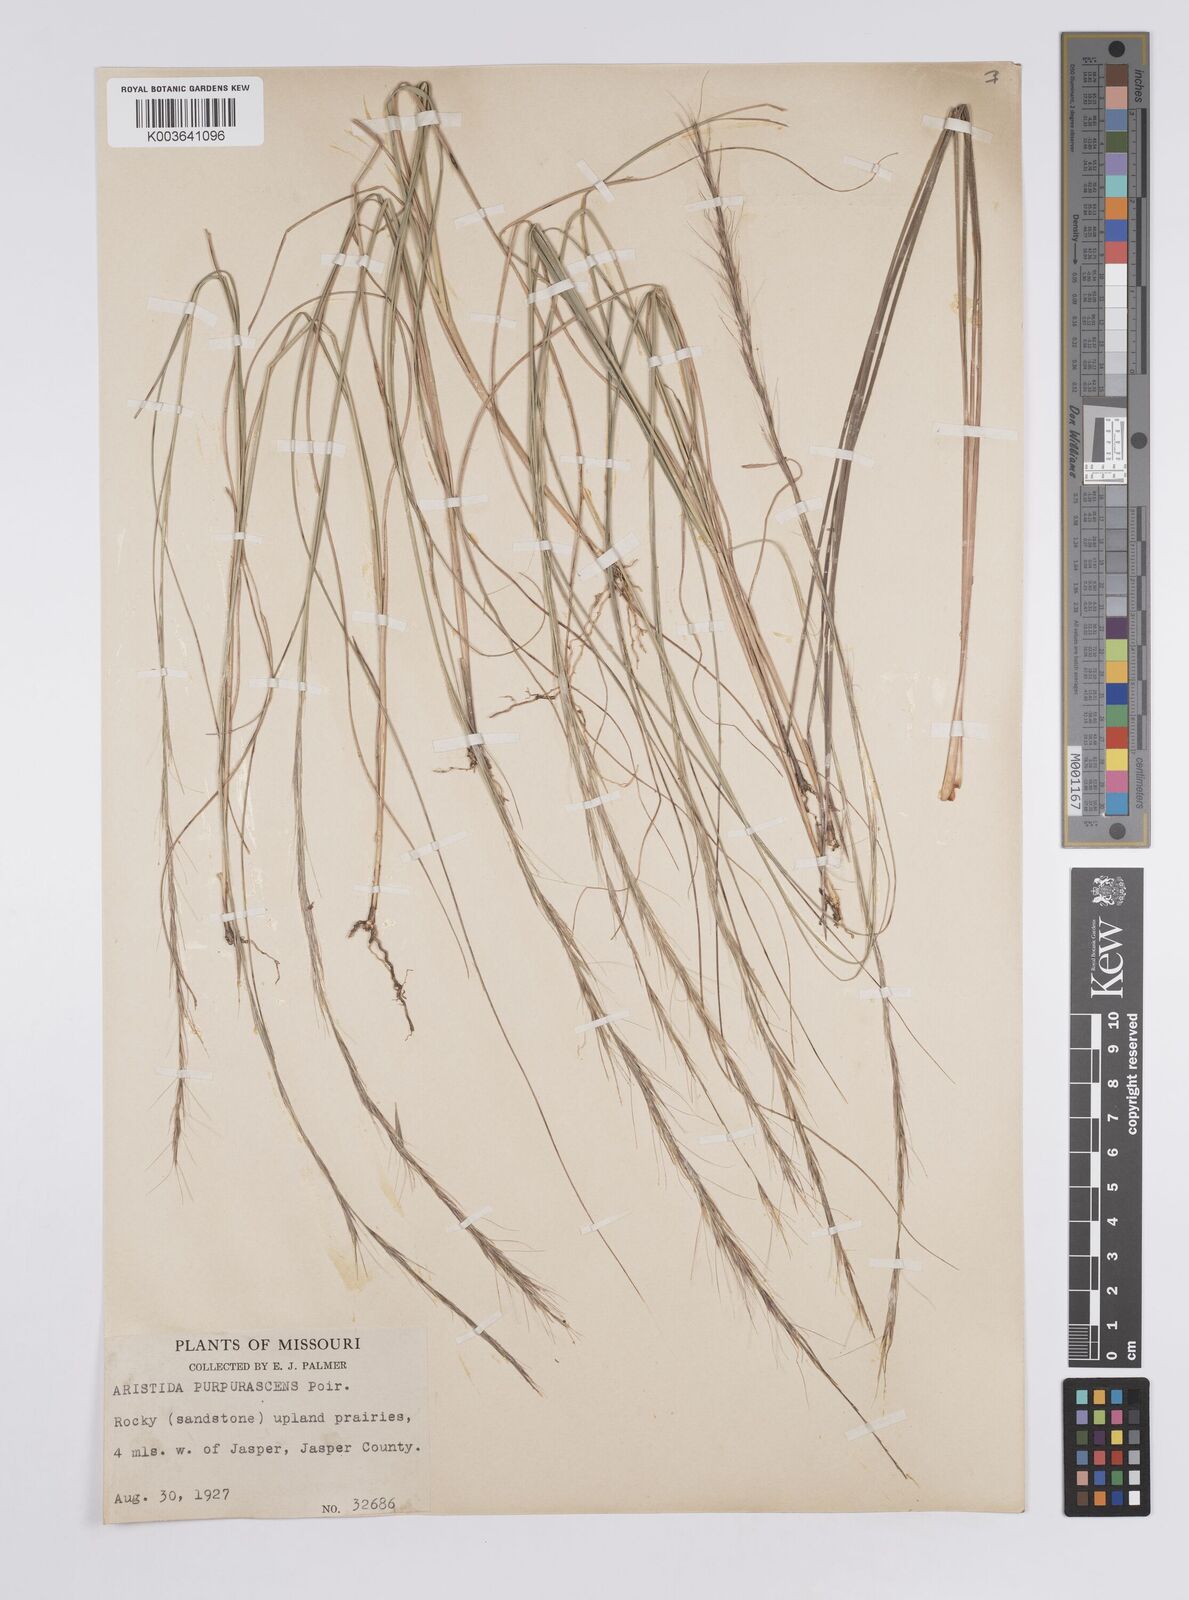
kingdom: Plantae
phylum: Tracheophyta
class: Liliopsida
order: Poales
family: Poaceae
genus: Aristida
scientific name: Aristida purpurascens
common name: Arrow-feather
